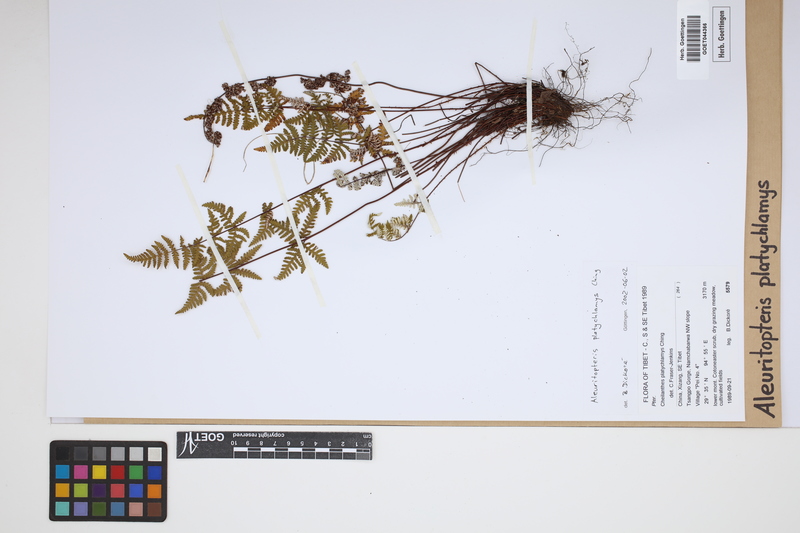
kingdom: Plantae
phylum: Tracheophyta
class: Polypodiopsida
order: Polypodiales
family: Pteridaceae
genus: Aleuritopteris
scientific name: Aleuritopteris grisea
